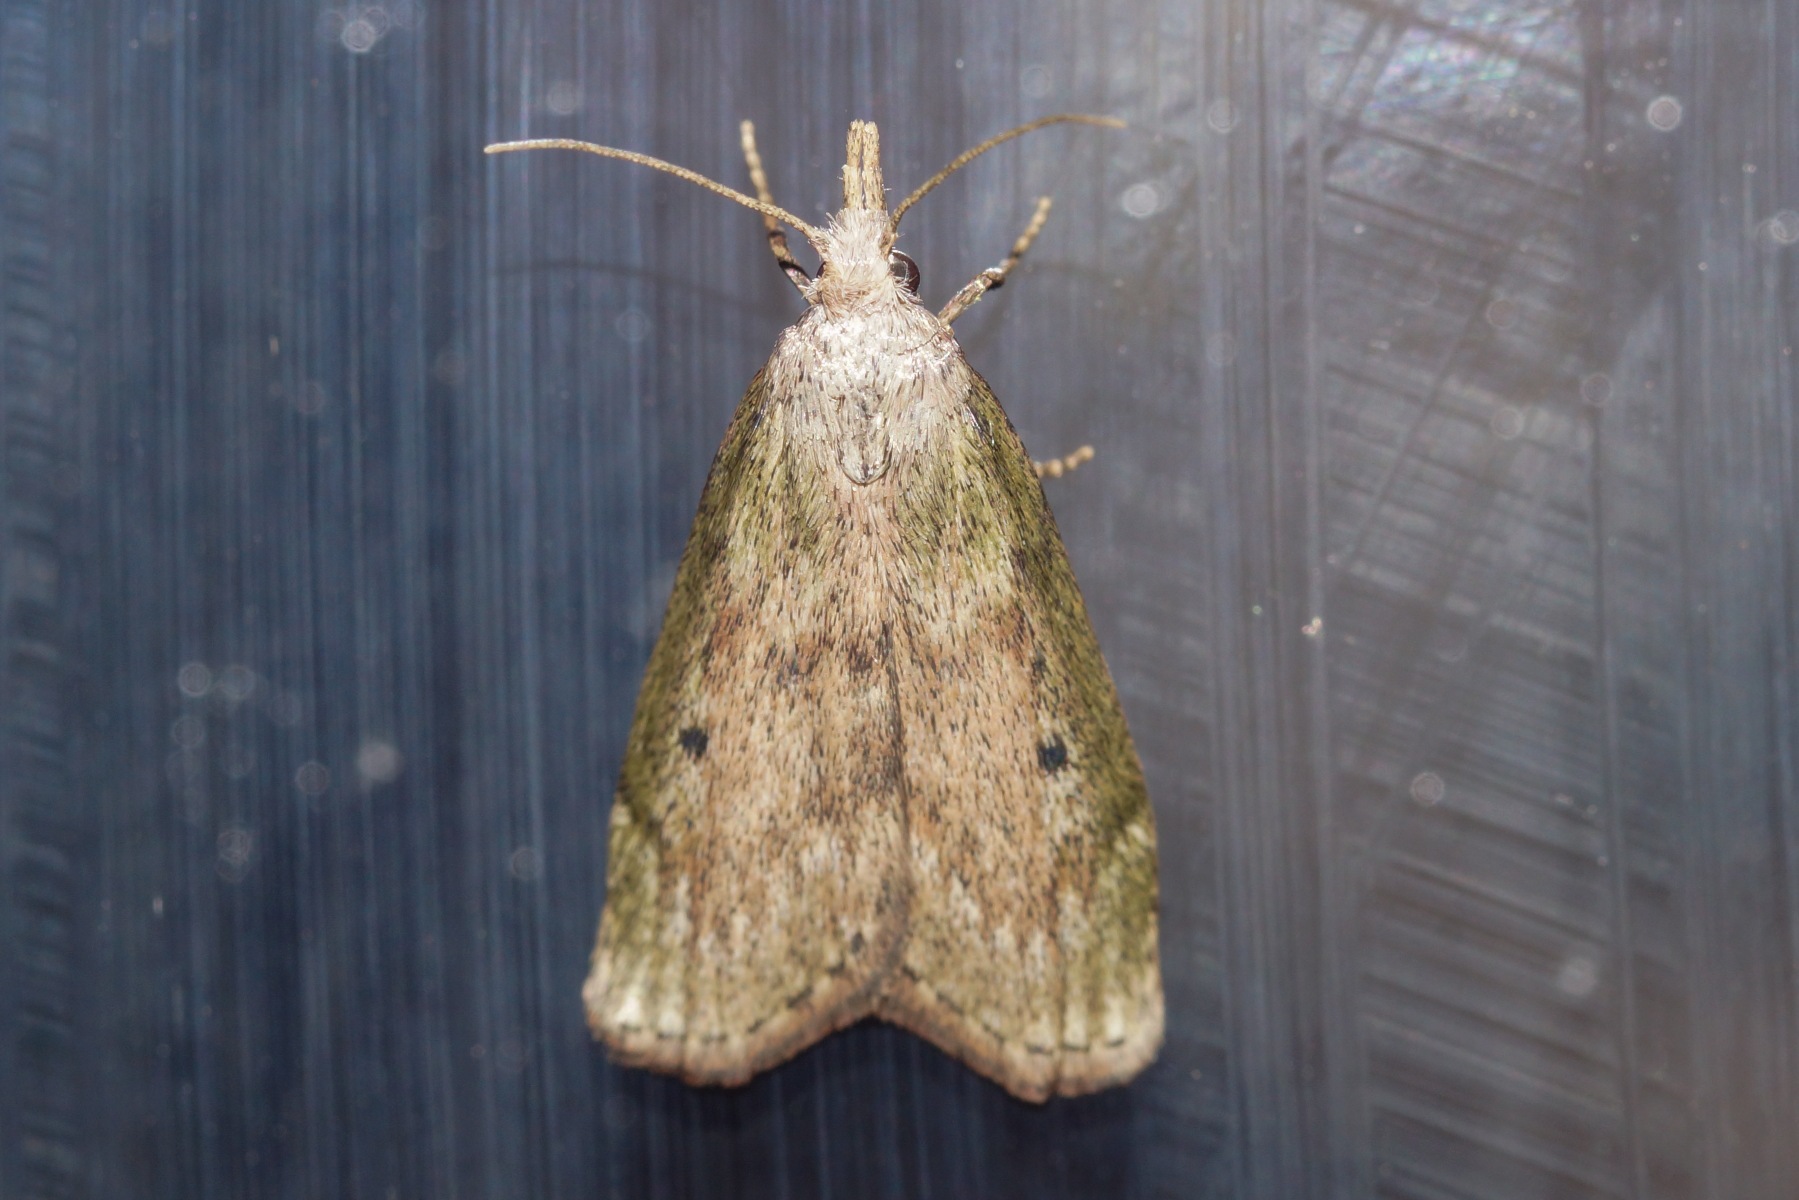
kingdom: Animalia
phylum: Arthropoda
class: Insecta
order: Lepidoptera
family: Pyralidae
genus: Aphomia
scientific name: Aphomia sociella
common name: Humlevoksmøl
